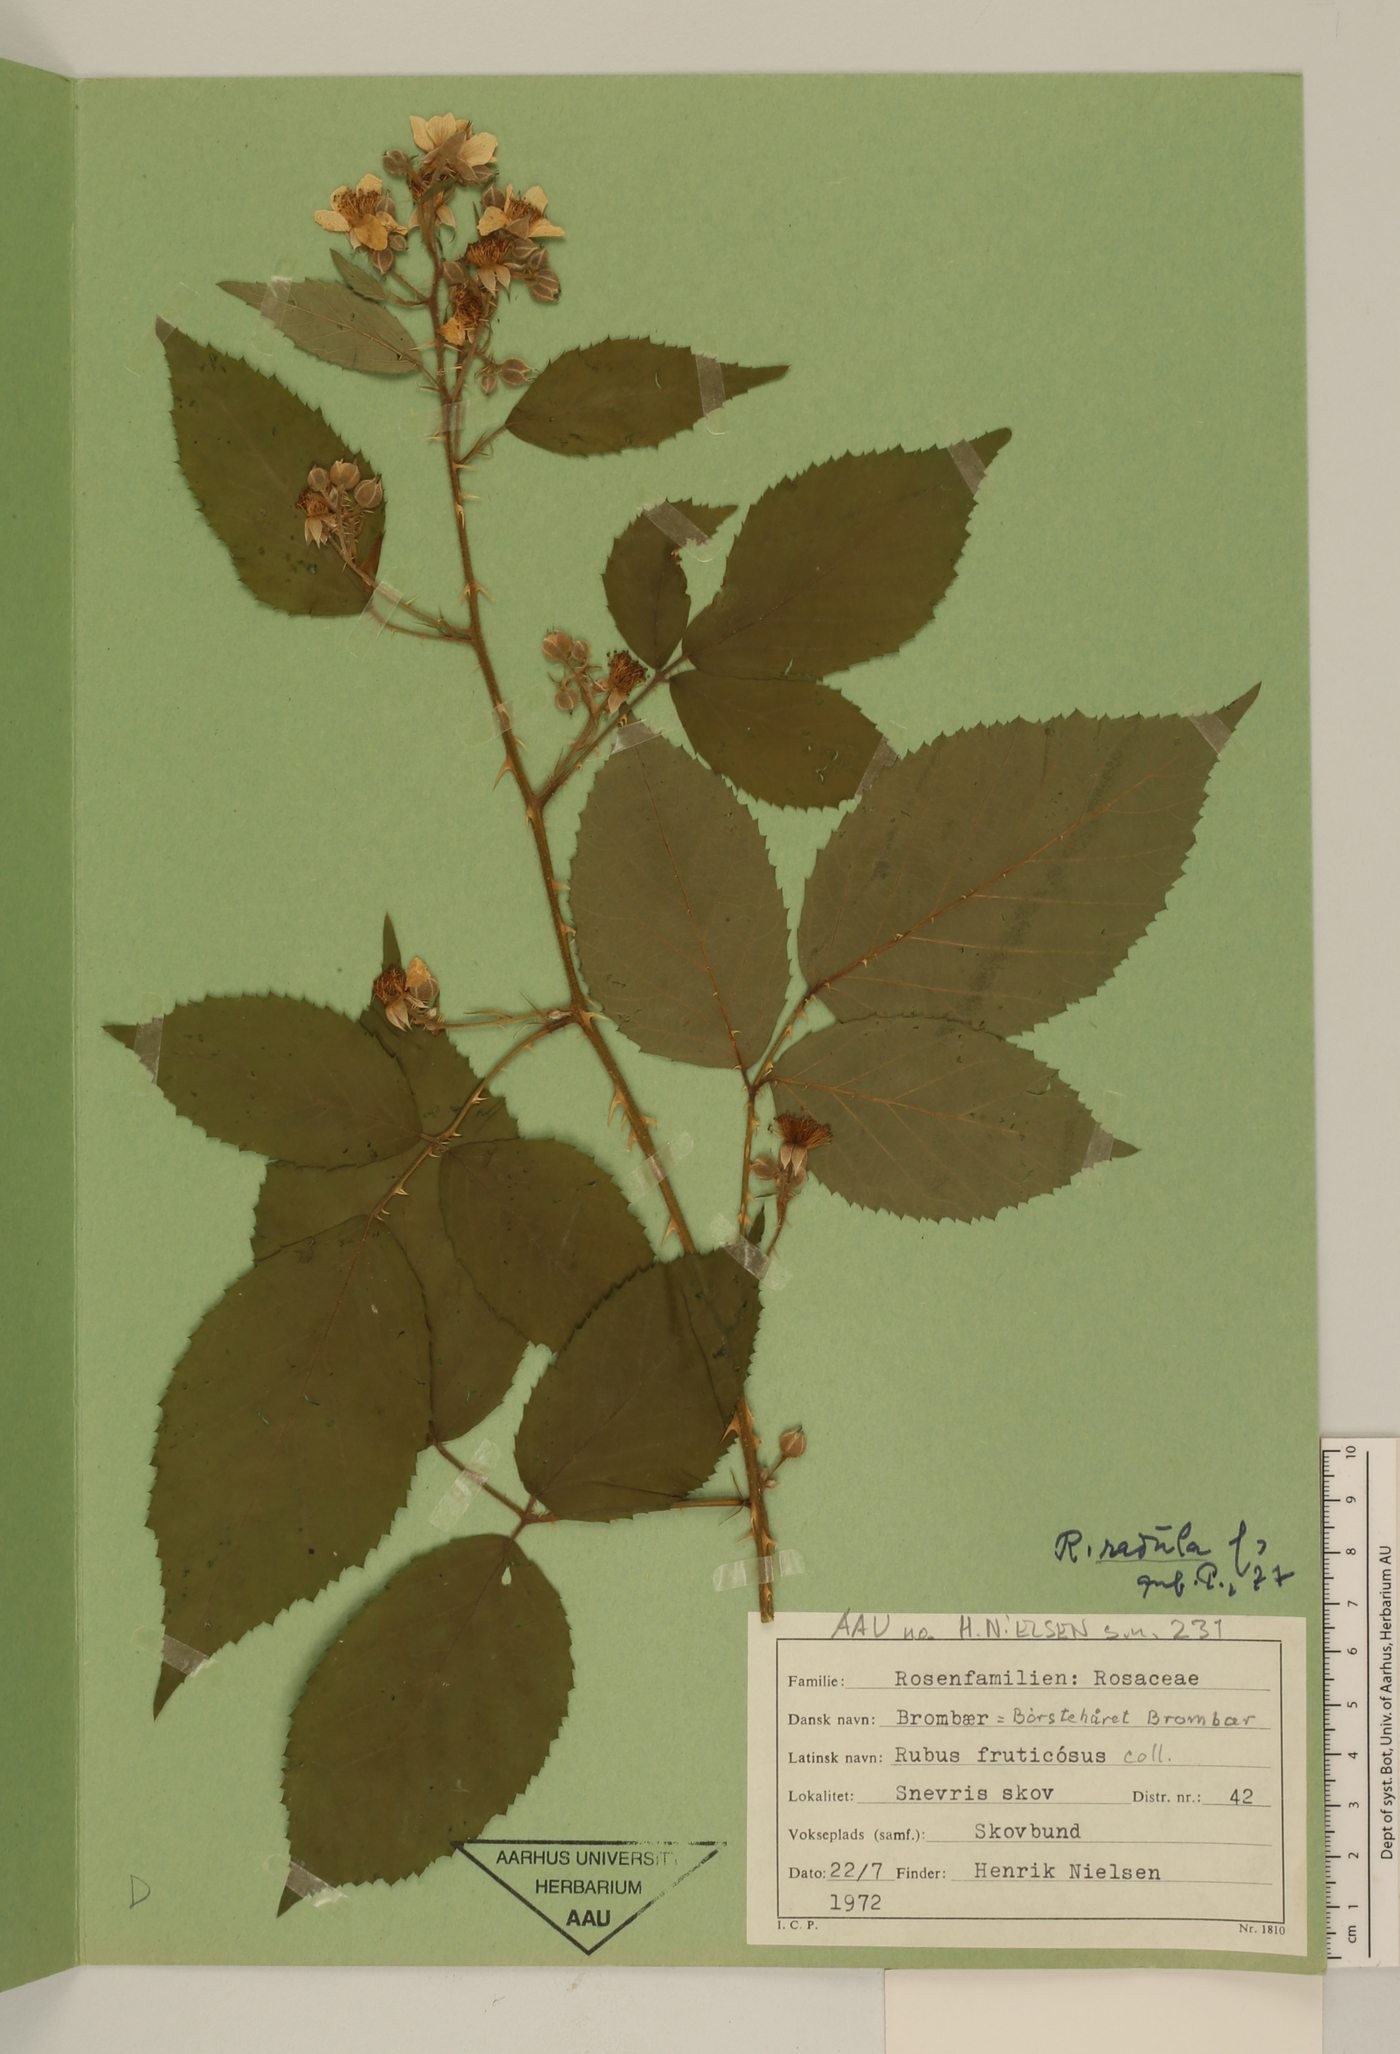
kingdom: Plantae
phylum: Tracheophyta
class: Magnoliopsida
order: Rosales
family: Rosaceae
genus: Rubus
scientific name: Rubus radula
